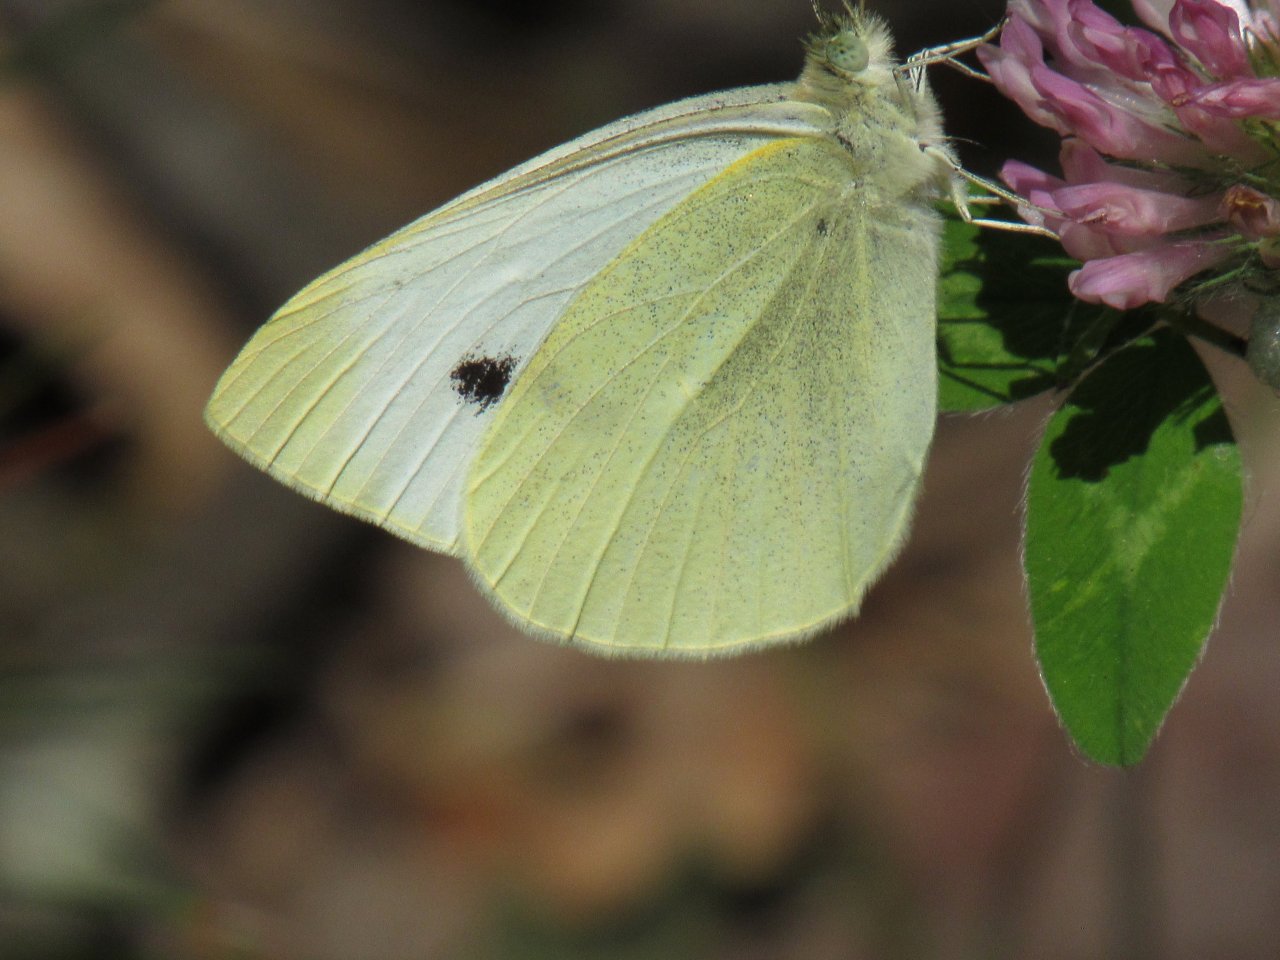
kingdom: Animalia
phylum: Arthropoda
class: Insecta
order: Lepidoptera
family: Pieridae
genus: Pieris
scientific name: Pieris rapae
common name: Cabbage White
